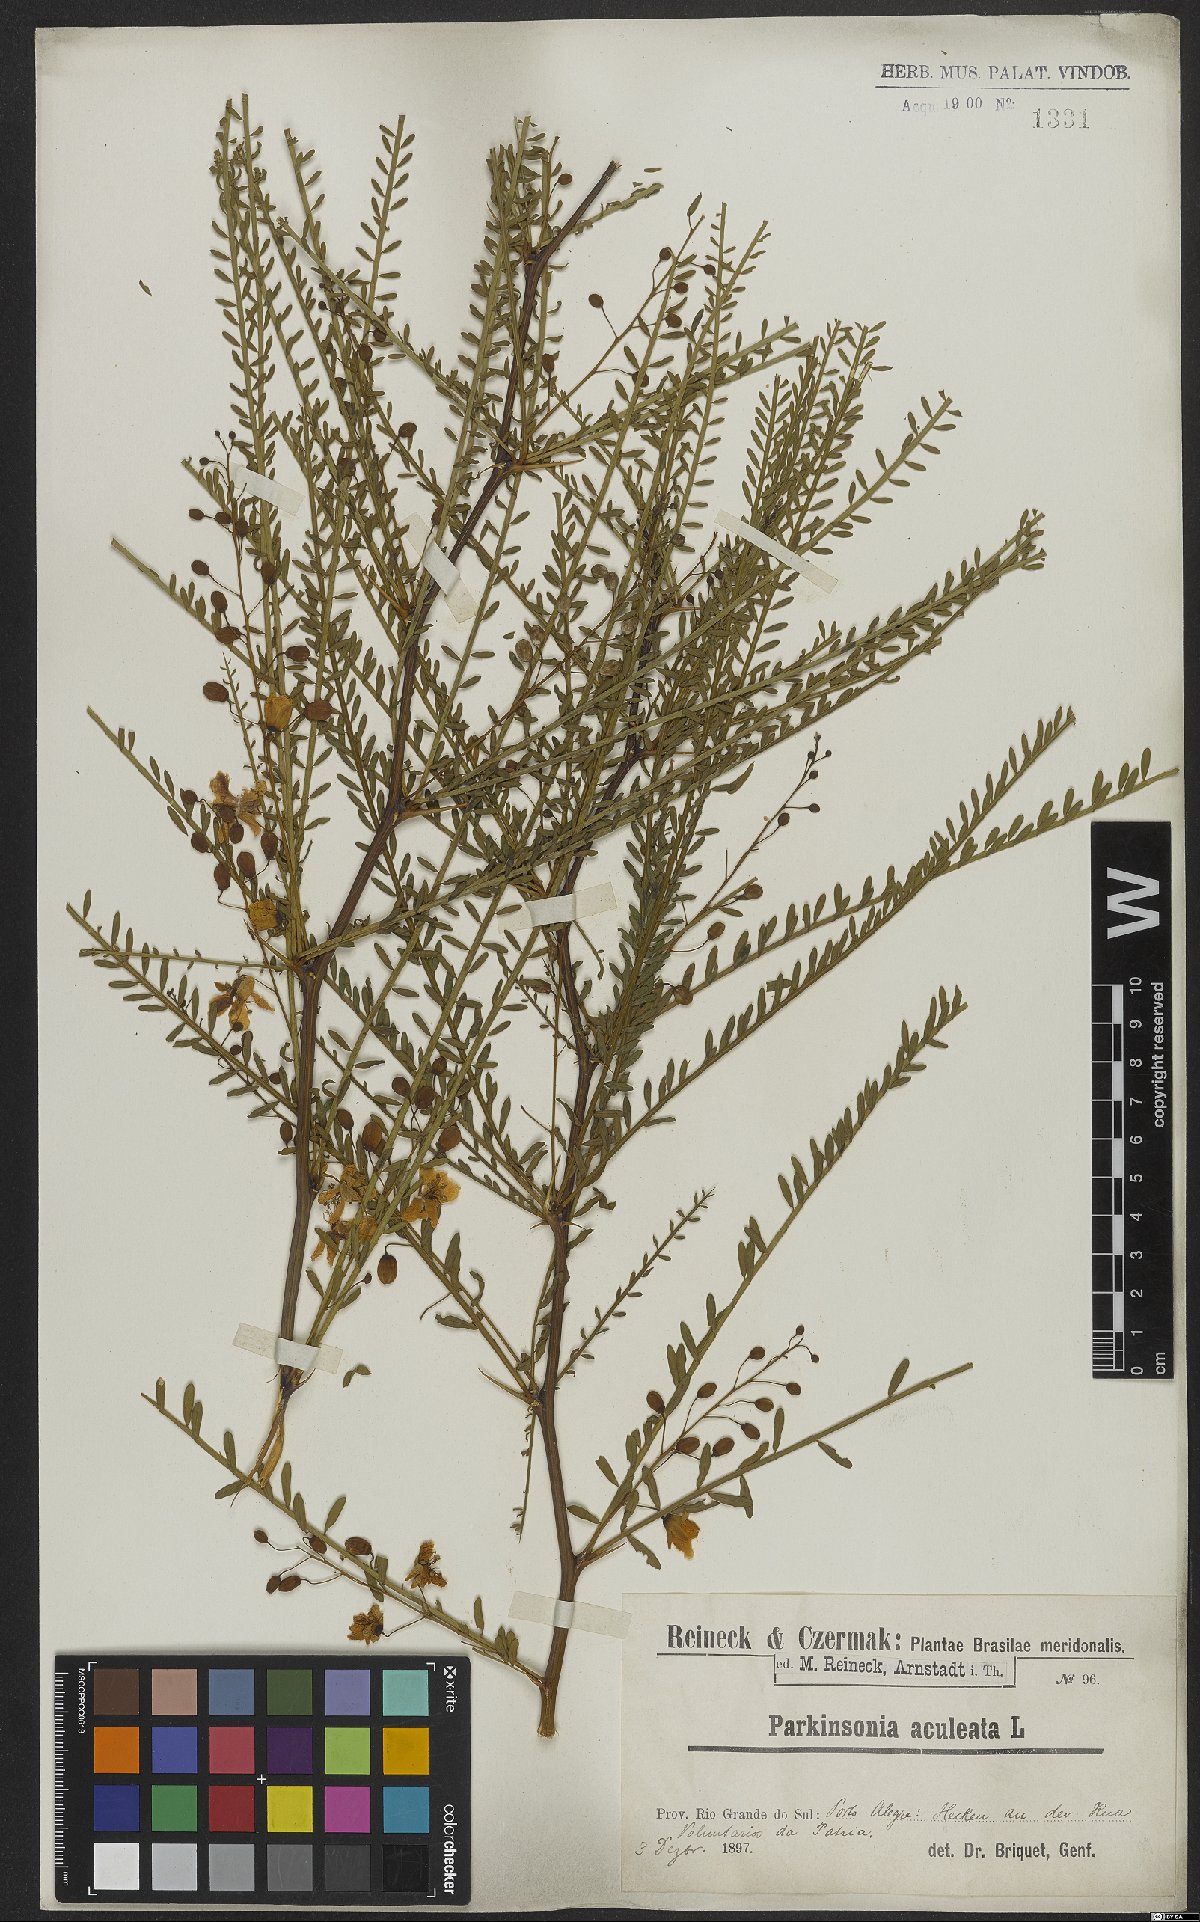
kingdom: Plantae
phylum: Tracheophyta
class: Magnoliopsida
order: Fabales
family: Fabaceae
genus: Parkinsonia
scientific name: Parkinsonia aculeata
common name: Jerusalem thorn
